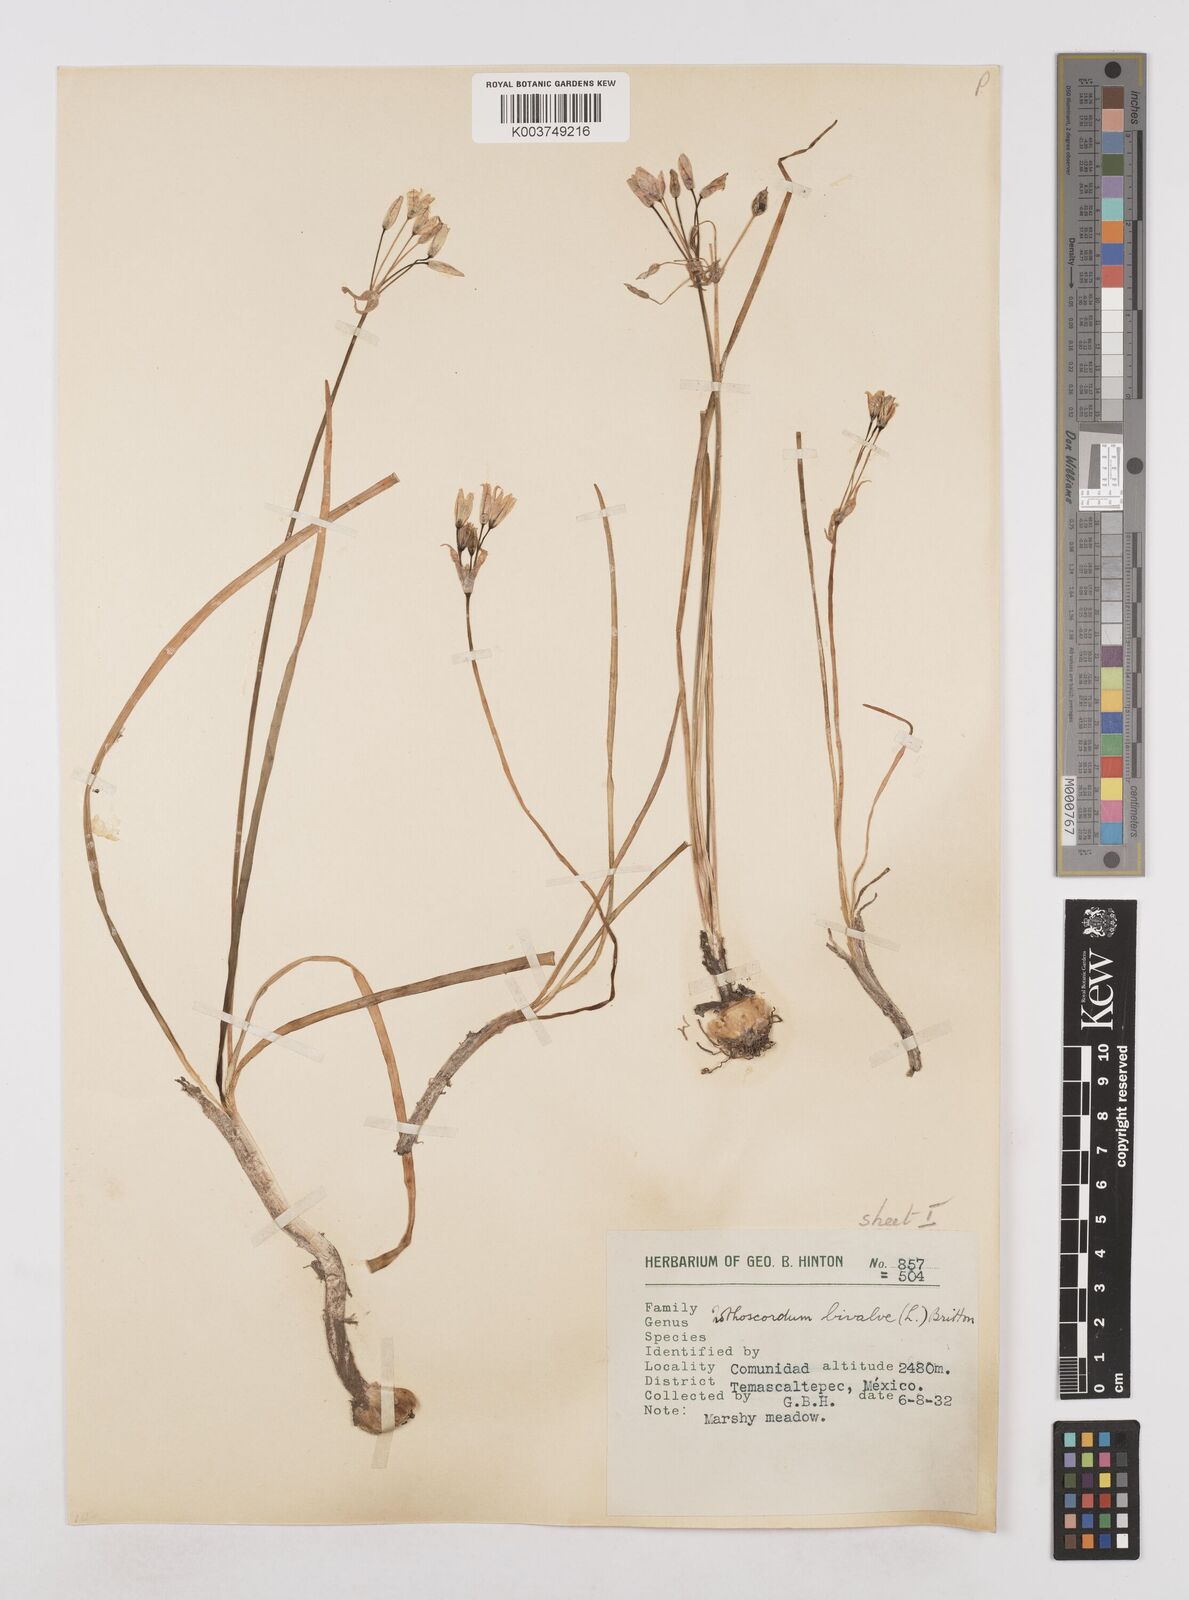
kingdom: Plantae
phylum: Tracheophyta
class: Liliopsida
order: Asparagales
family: Amaryllidaceae
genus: Nothoscordum
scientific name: Nothoscordum bivalve
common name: Crow-poison
